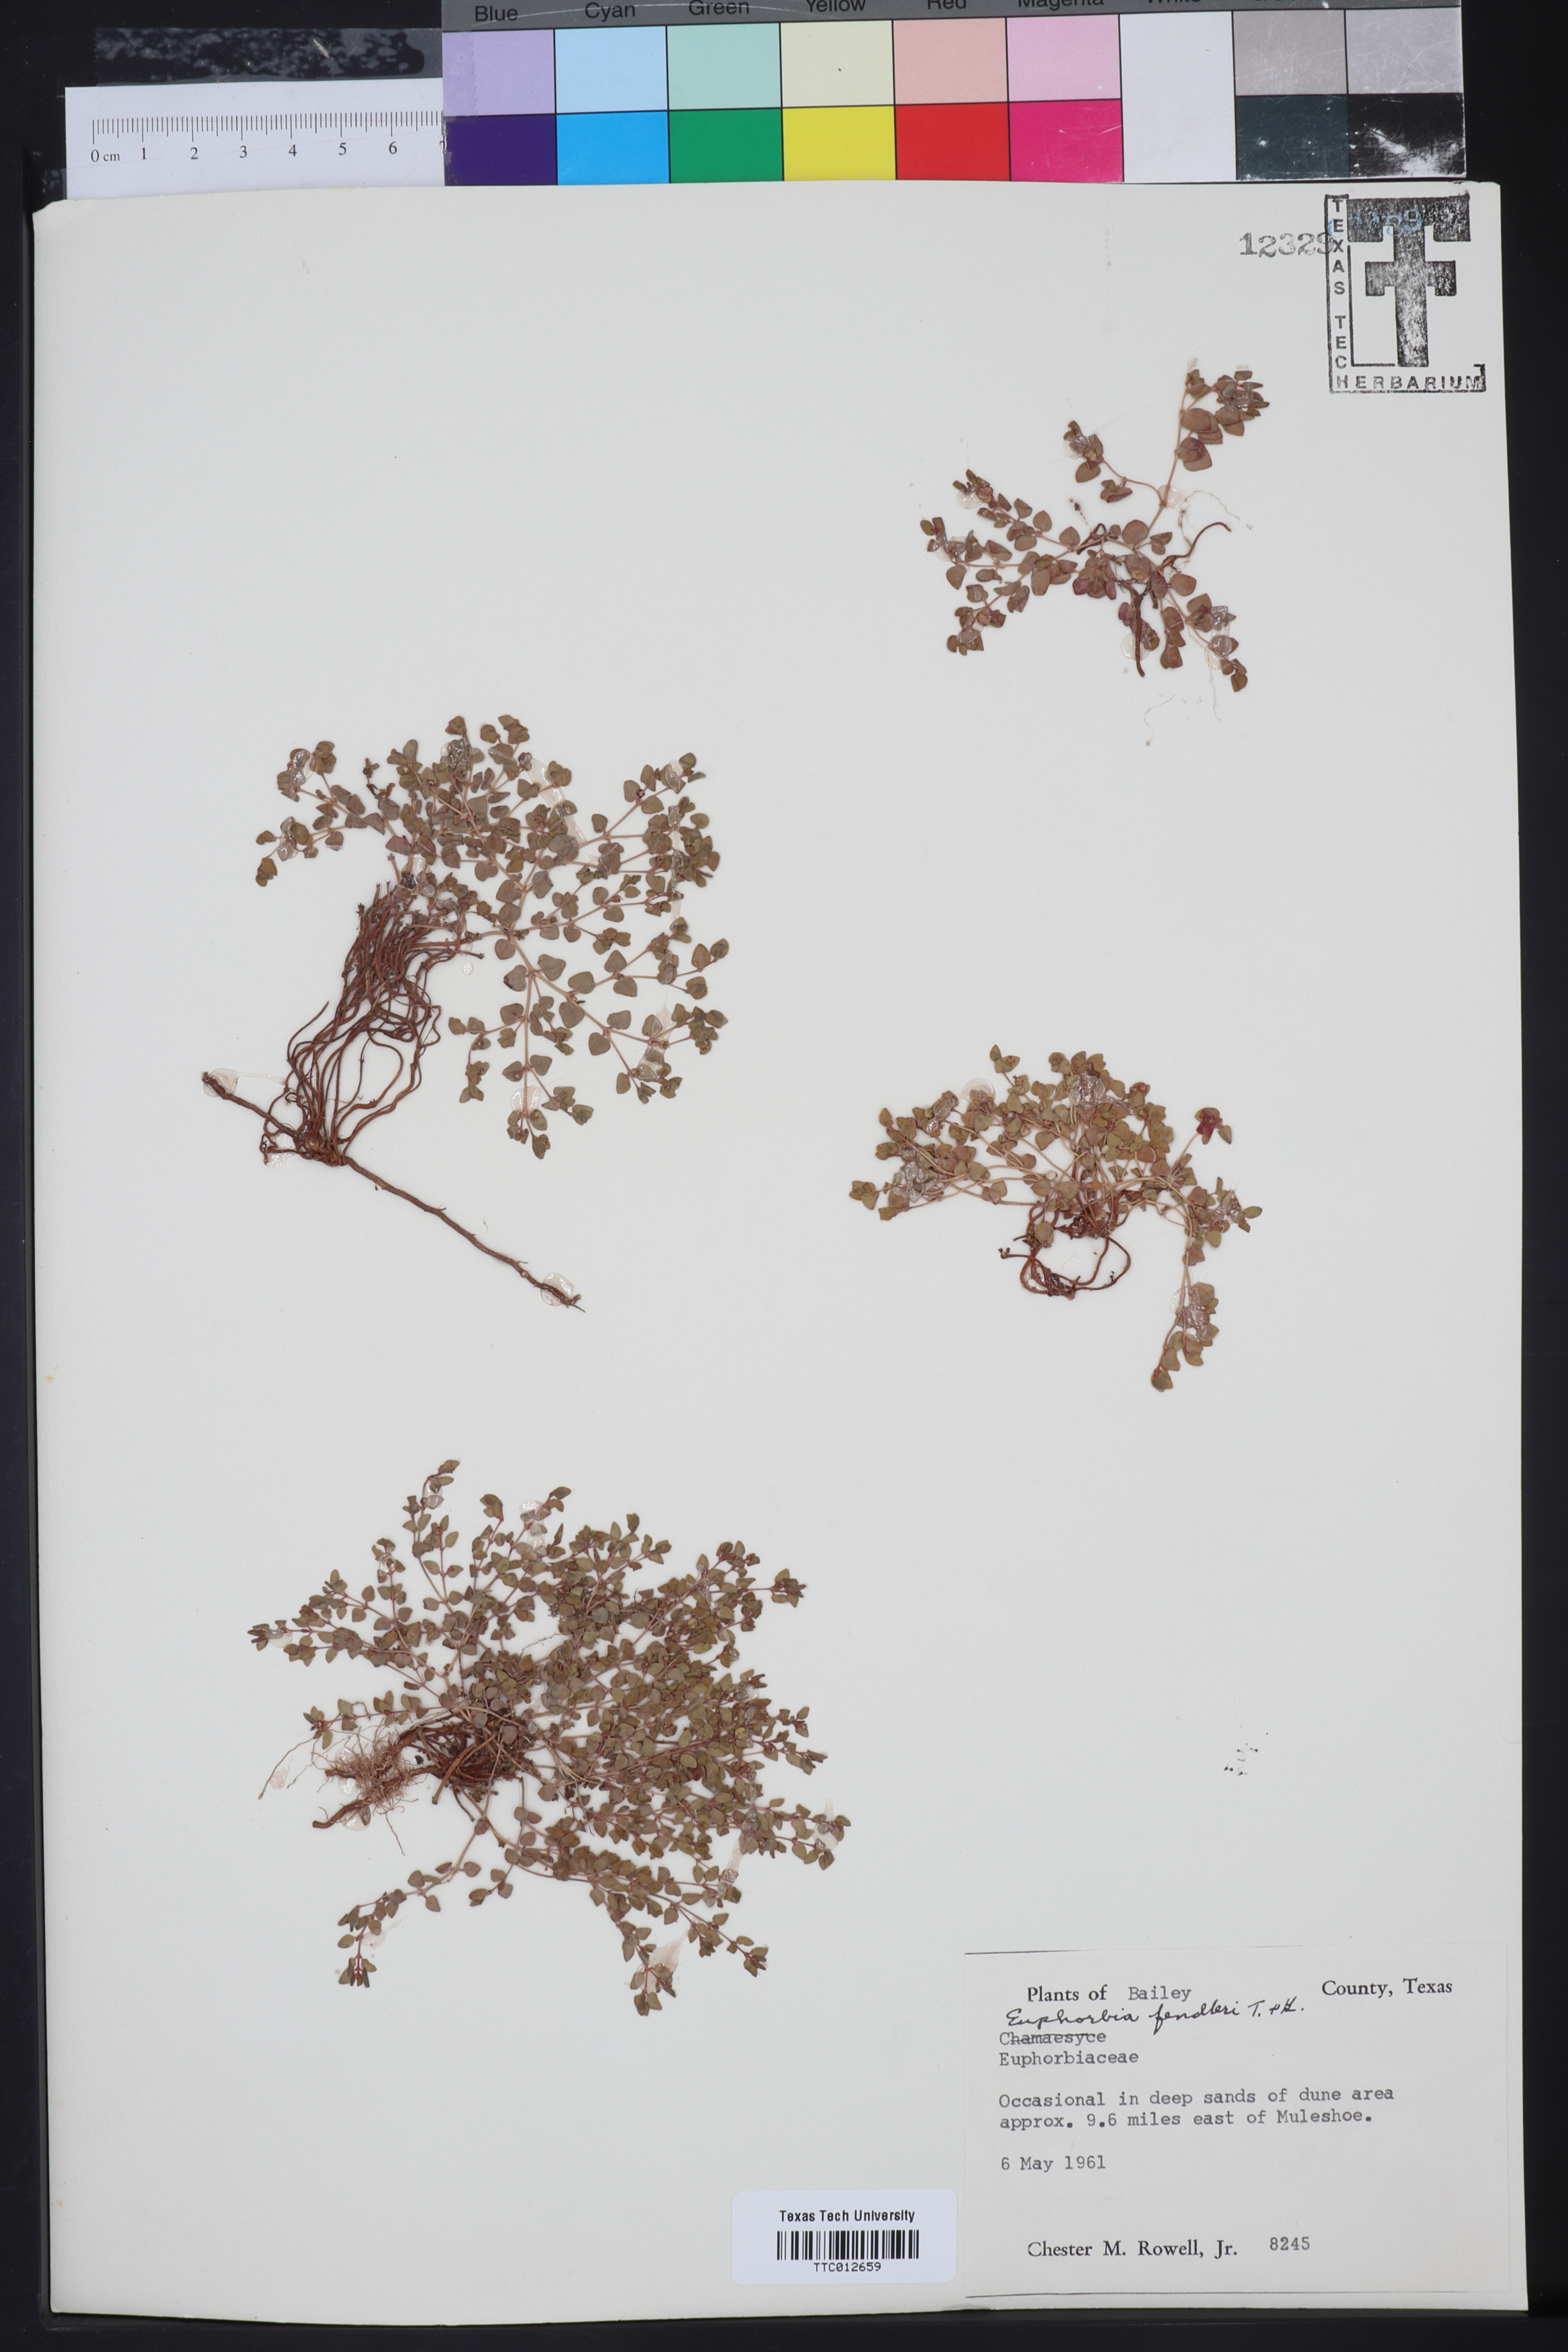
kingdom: Plantae
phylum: Tracheophyta
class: Magnoliopsida
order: Malpighiales
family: Euphorbiaceae
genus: Euphorbia
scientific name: Euphorbia fendleri
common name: Fendler's euphorbia
